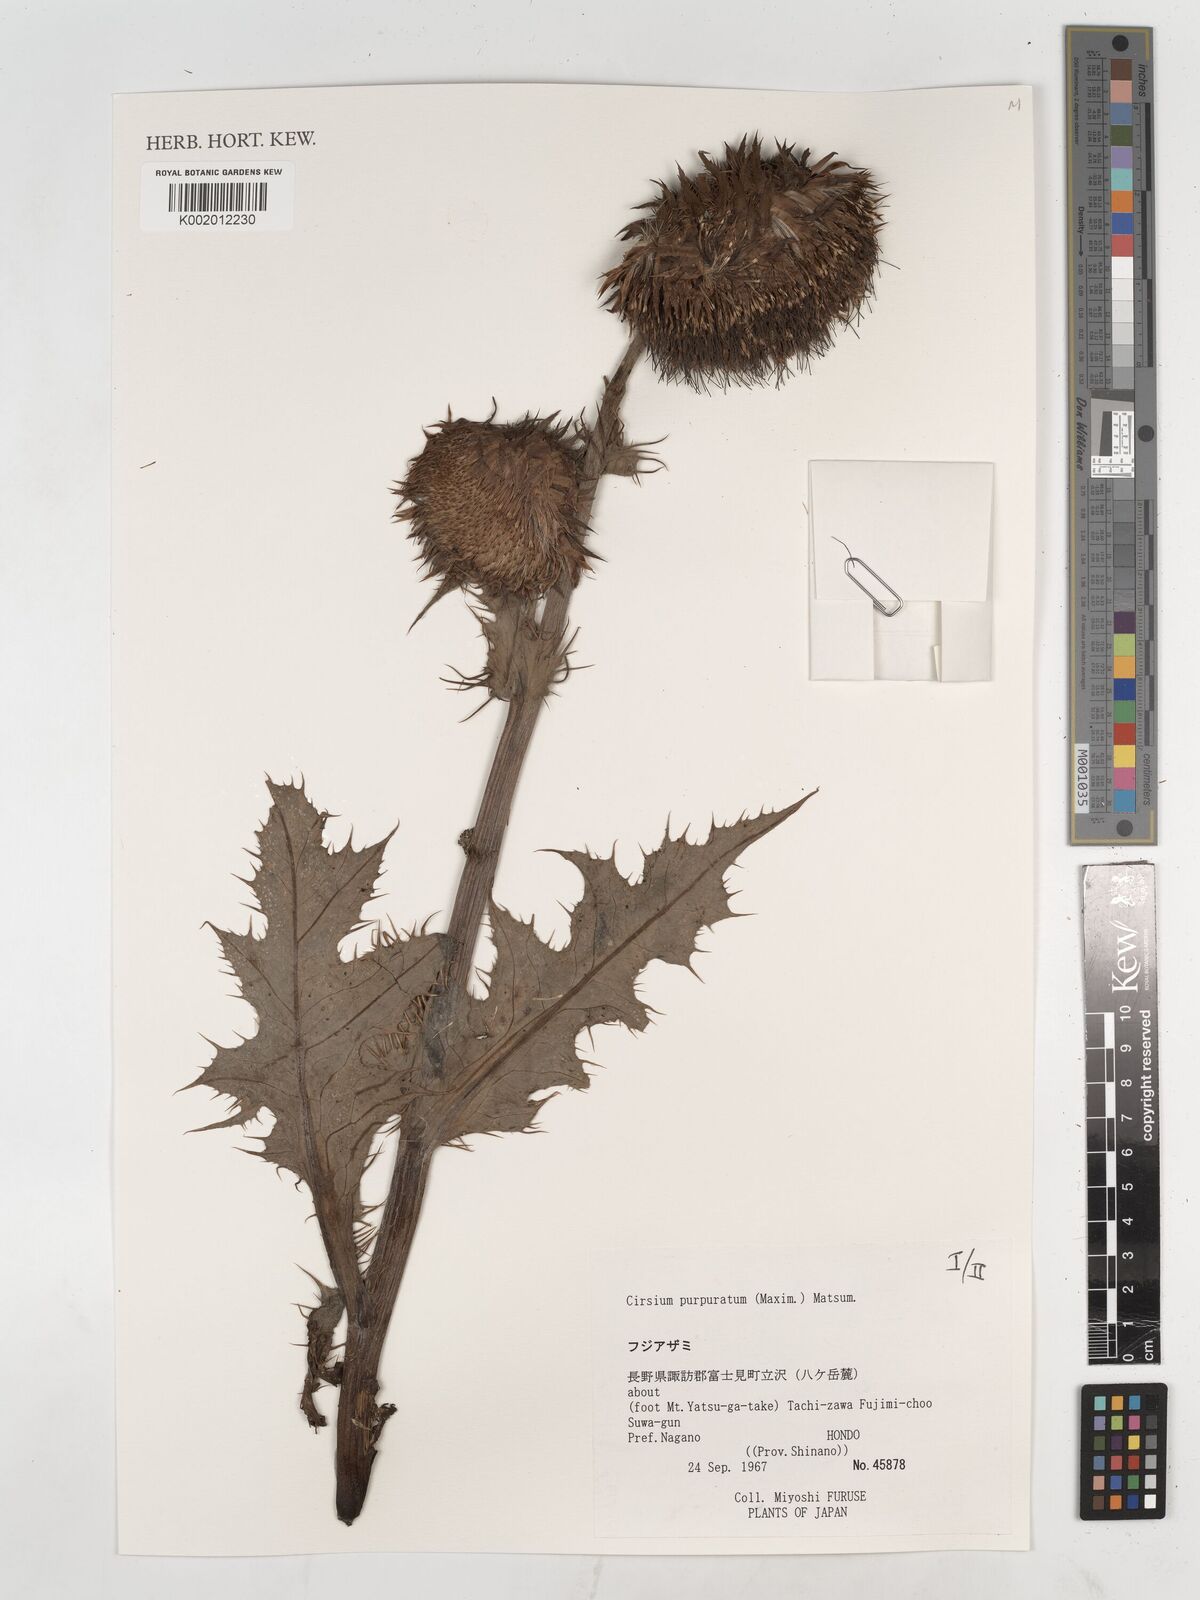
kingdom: Plantae
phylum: Tracheophyta
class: Magnoliopsida
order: Asterales
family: Asteraceae
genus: Cirsium
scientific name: Cirsium purpuratum
